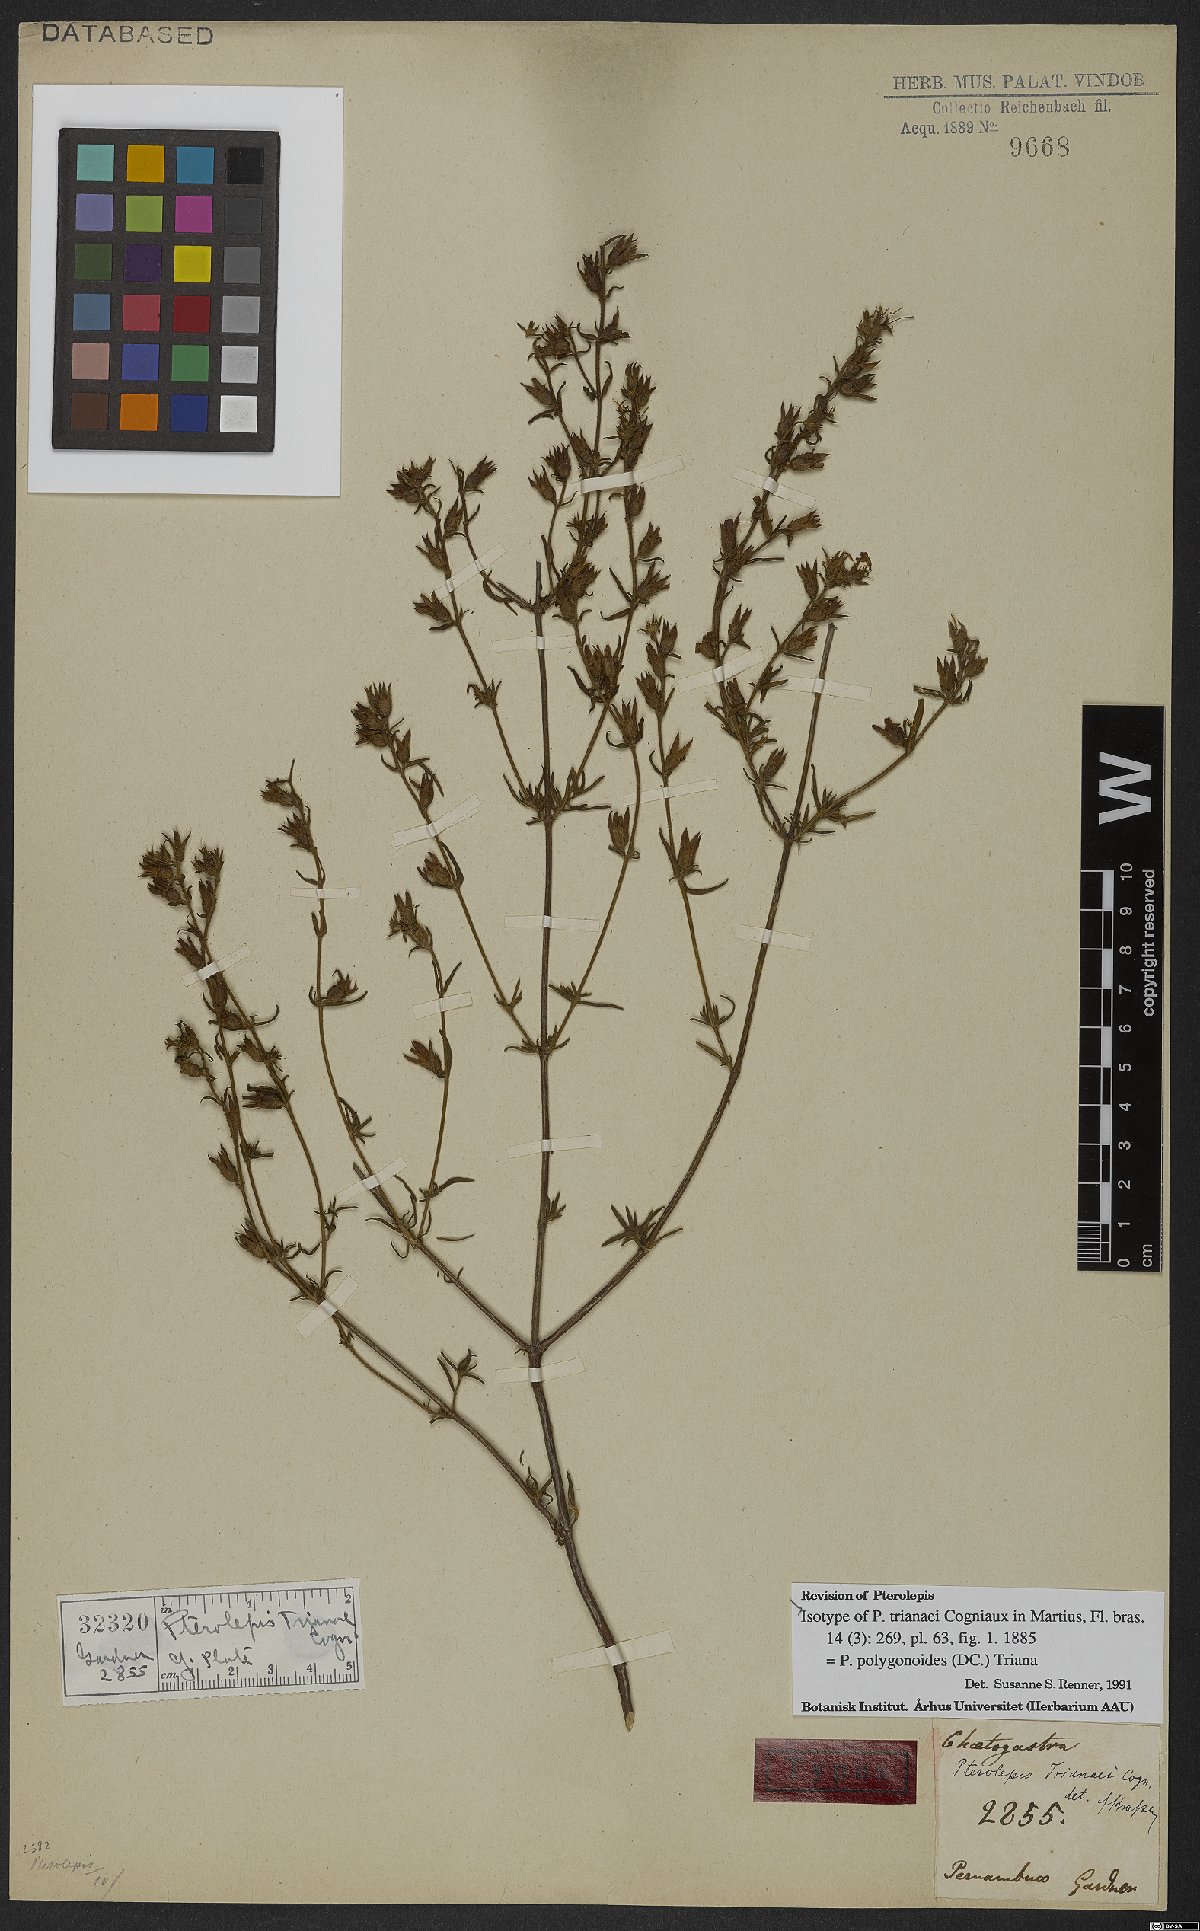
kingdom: Plantae
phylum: Tracheophyta
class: Magnoliopsida
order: Myrtales
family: Melastomataceae
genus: Pterolepis
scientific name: Pterolepis polygonoides
